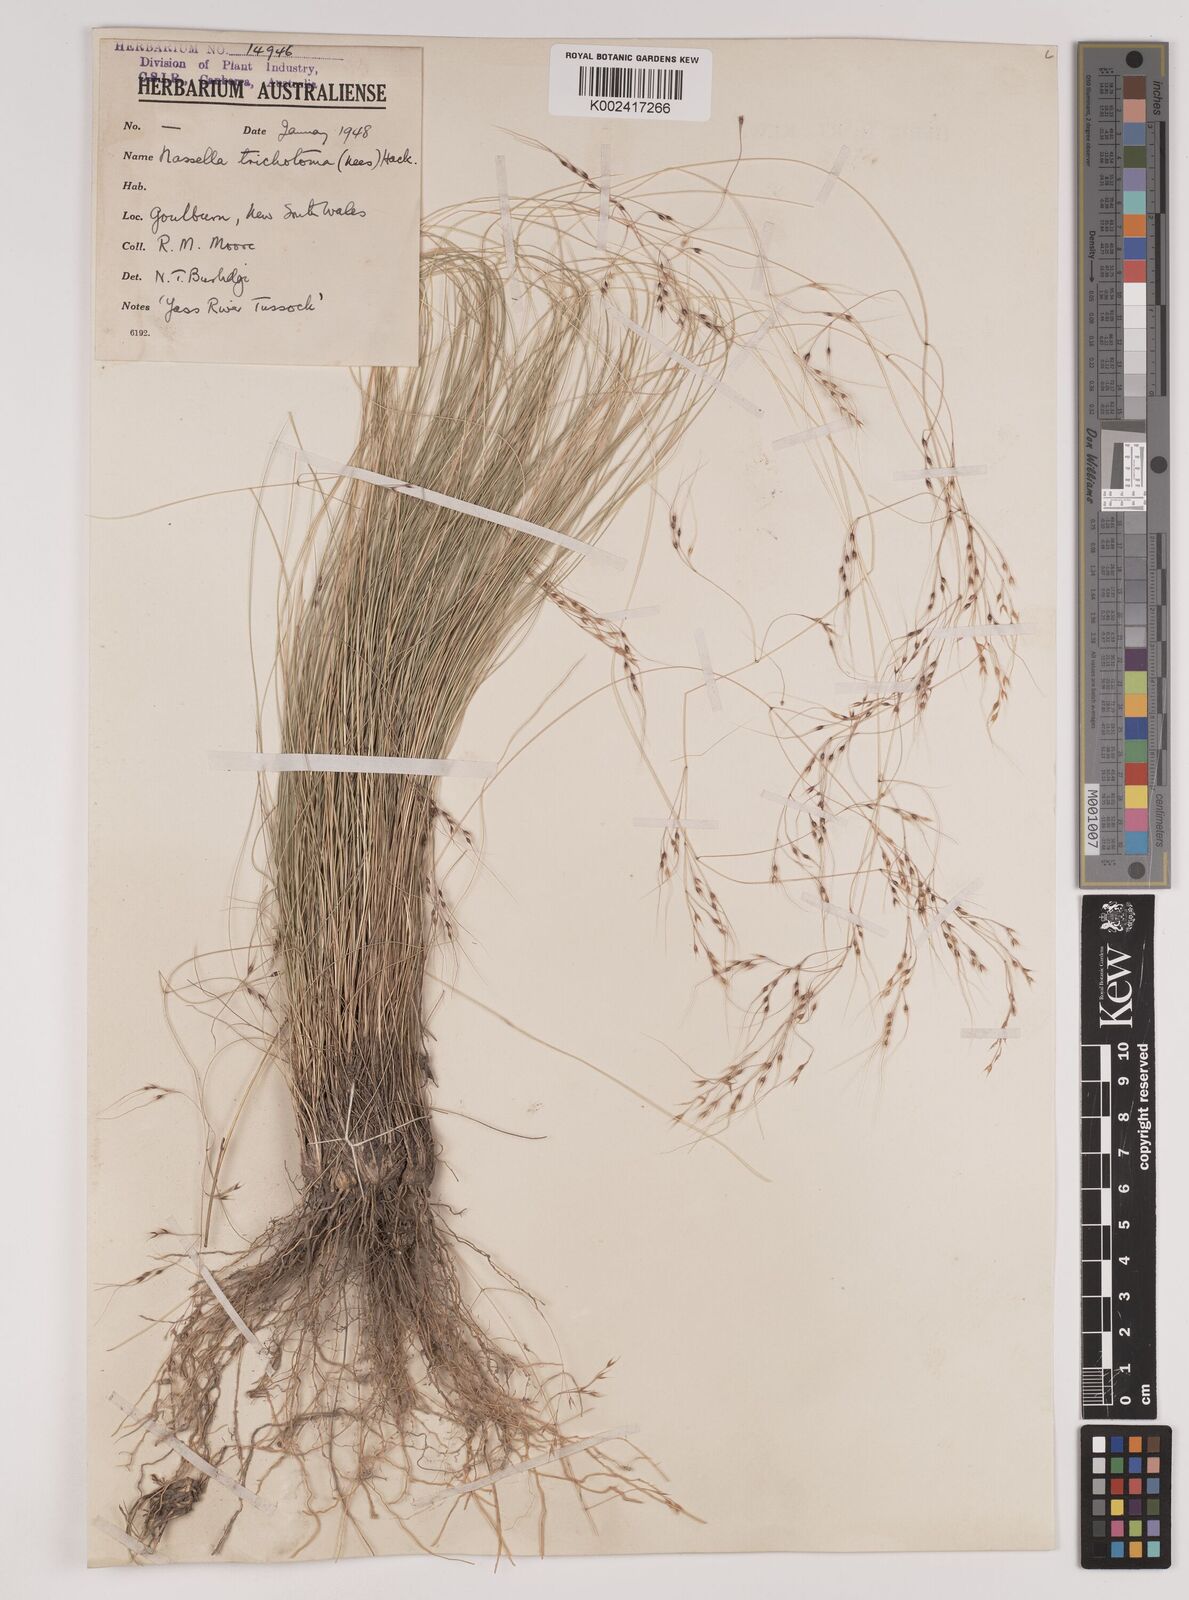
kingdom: Plantae
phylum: Tracheophyta
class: Liliopsida
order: Poales
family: Poaceae
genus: Nassella
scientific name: Nassella trichotoma
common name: Serrated tussock grass
